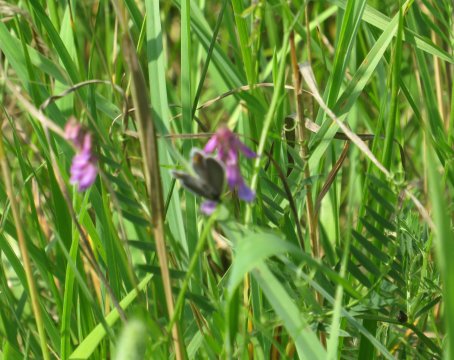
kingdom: Animalia
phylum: Arthropoda
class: Insecta
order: Lepidoptera
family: Lycaenidae
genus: Elkalyce
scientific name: Elkalyce comyntas
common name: Eastern Tailed-Blue
